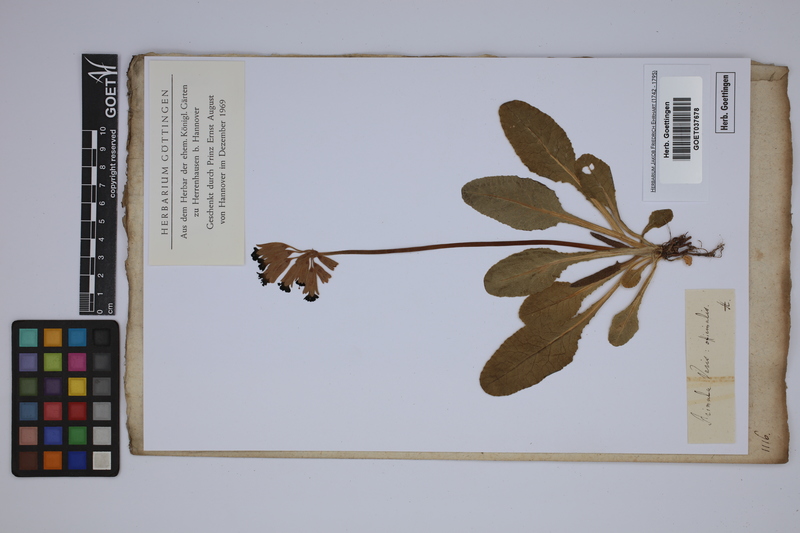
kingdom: Plantae
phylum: Tracheophyta
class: Magnoliopsida
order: Ericales
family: Primulaceae
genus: Primula
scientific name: Primula veris
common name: Cowslip
